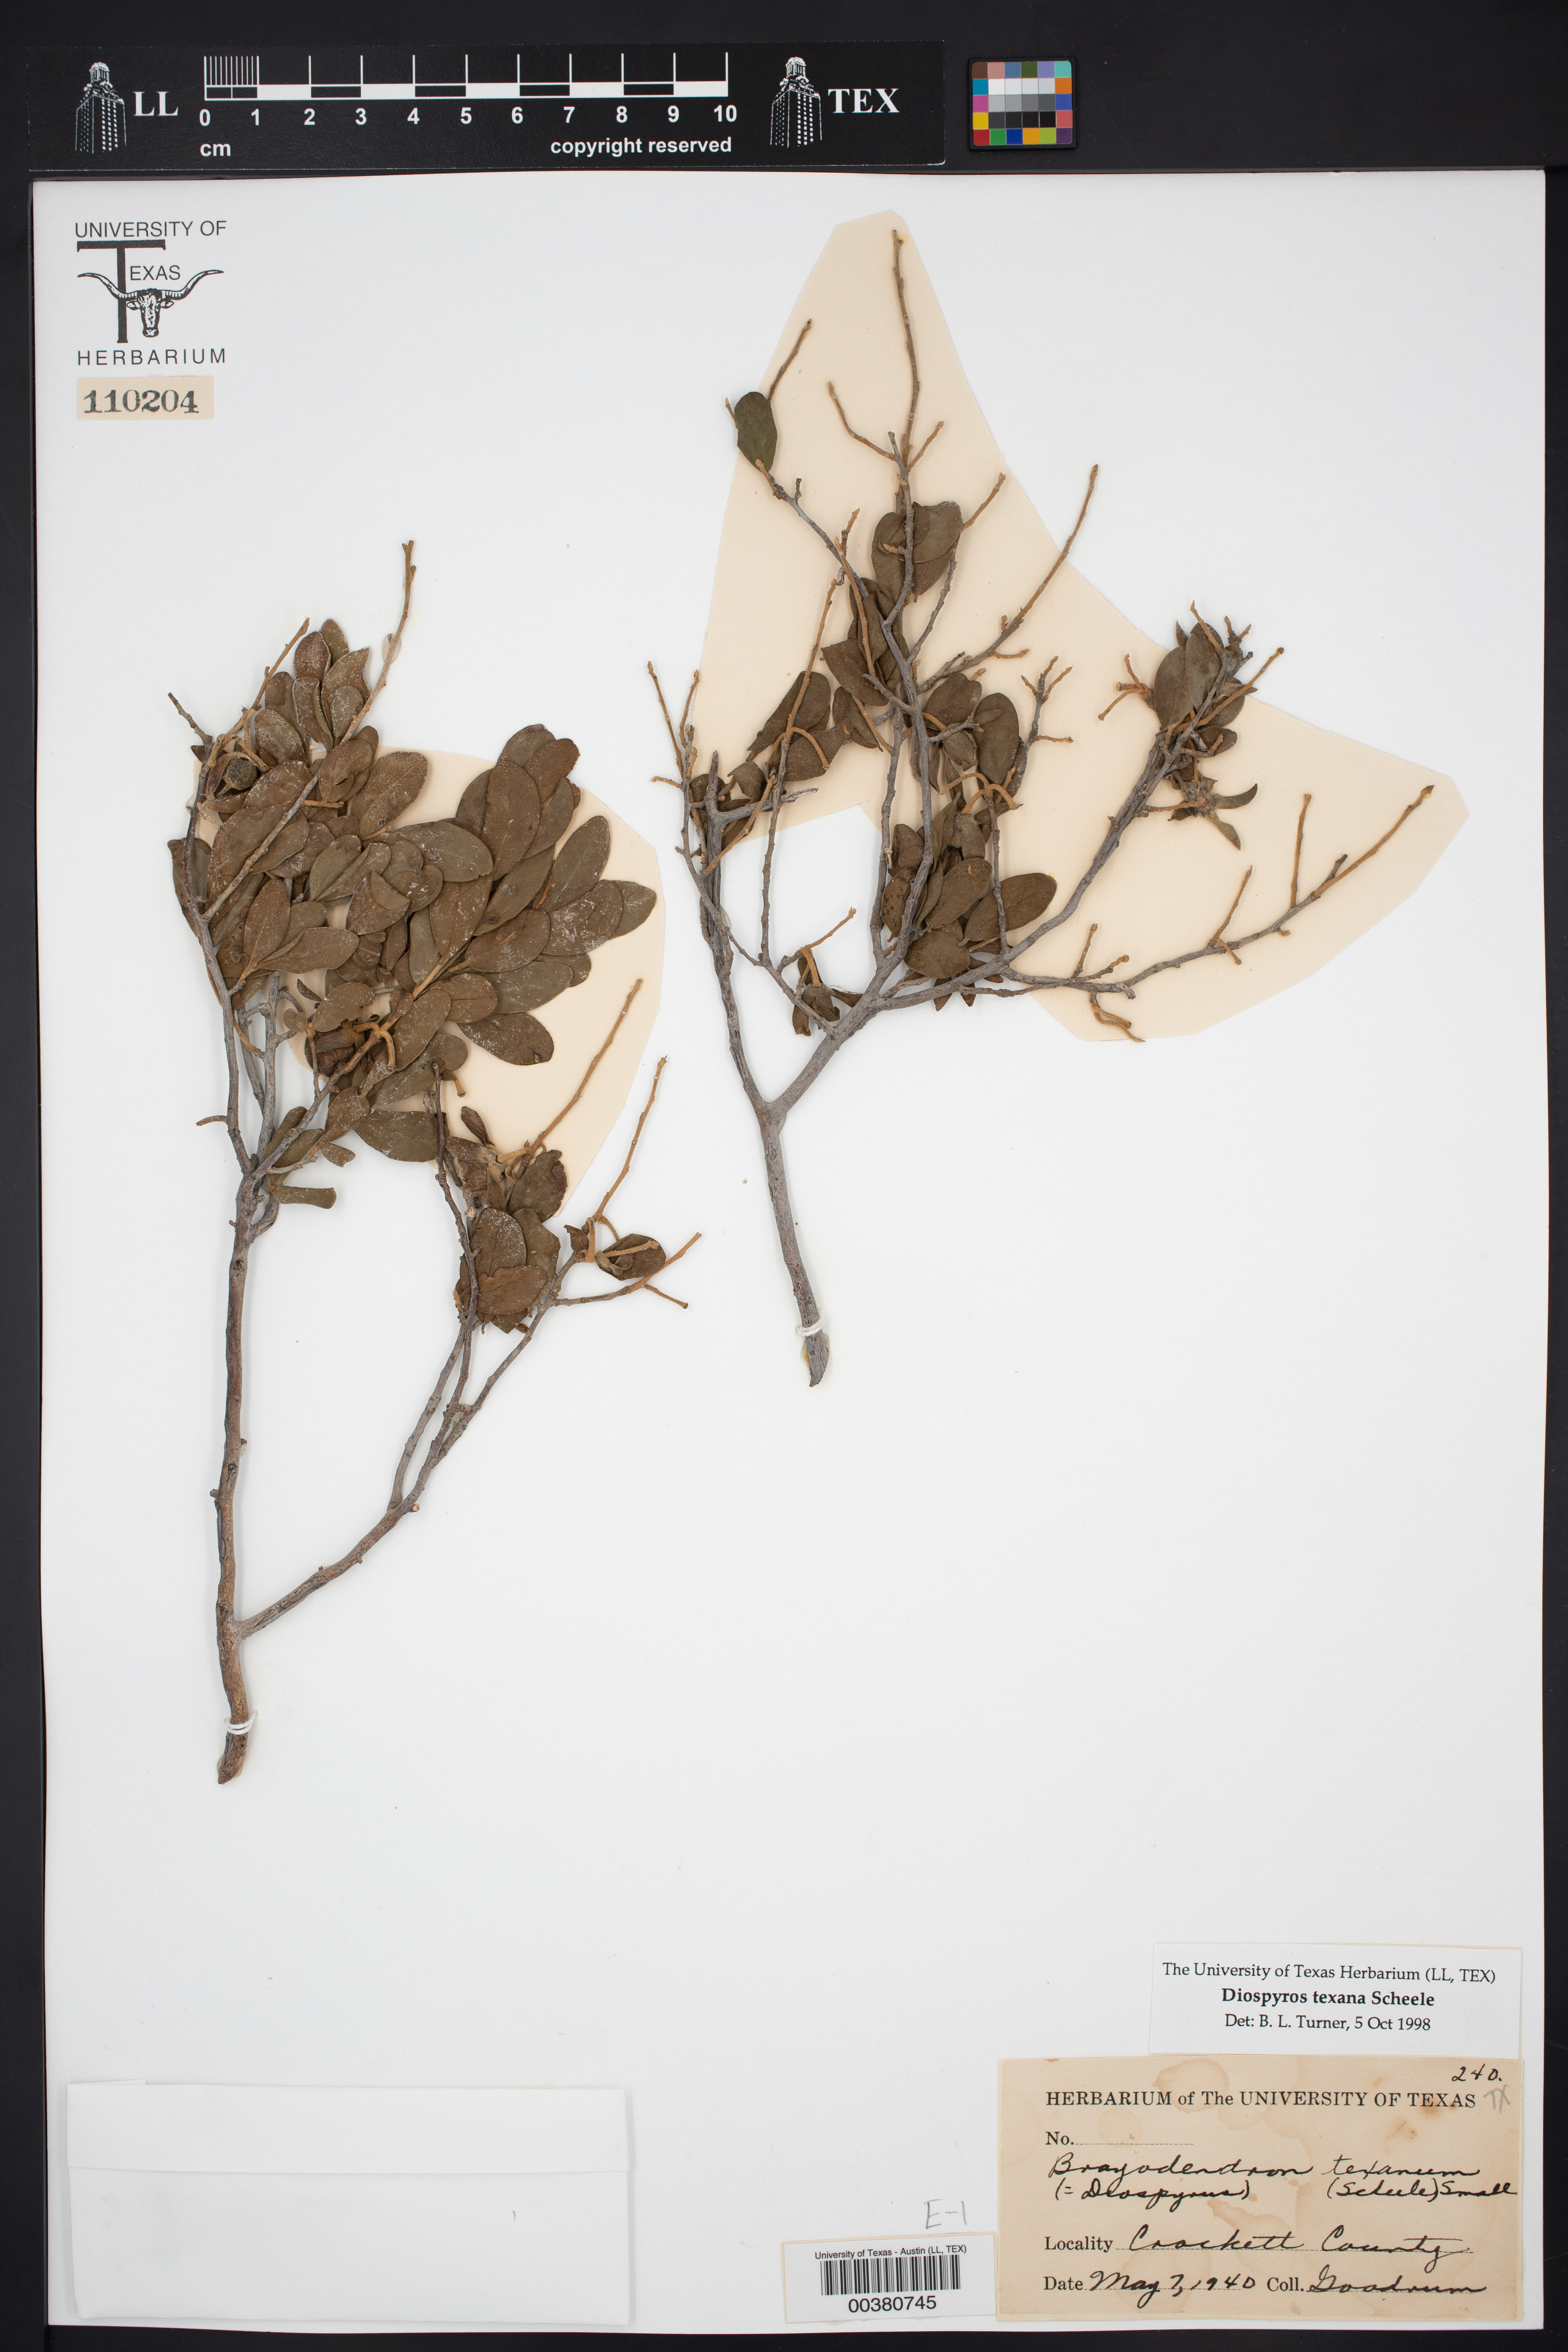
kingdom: Plantae
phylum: Tracheophyta
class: Magnoliopsida
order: Ericales
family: Ebenaceae
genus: Diospyros
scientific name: Diospyros texana
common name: Texas persimmon
